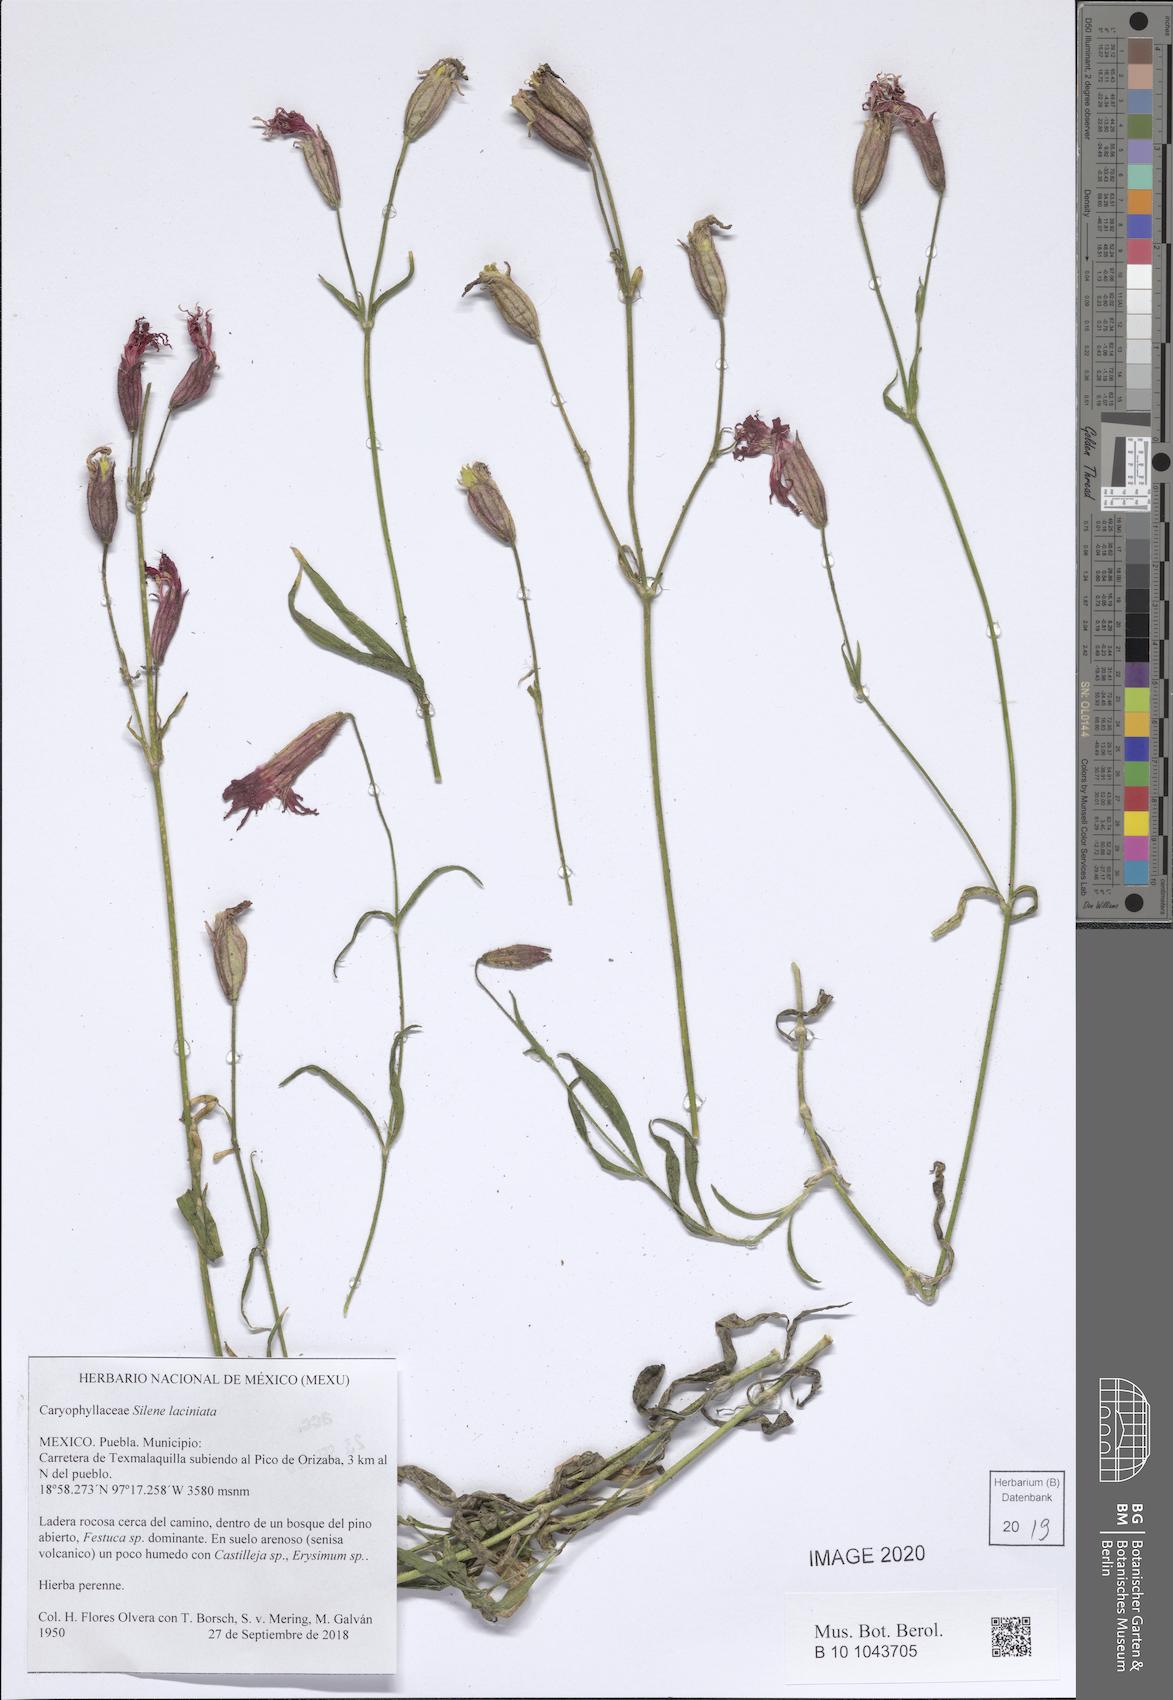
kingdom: Plantae
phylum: Tracheophyta
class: Magnoliopsida
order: Caryophyllales
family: Caryophyllaceae
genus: Silene
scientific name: Silene laciniata
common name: Indian-pink
